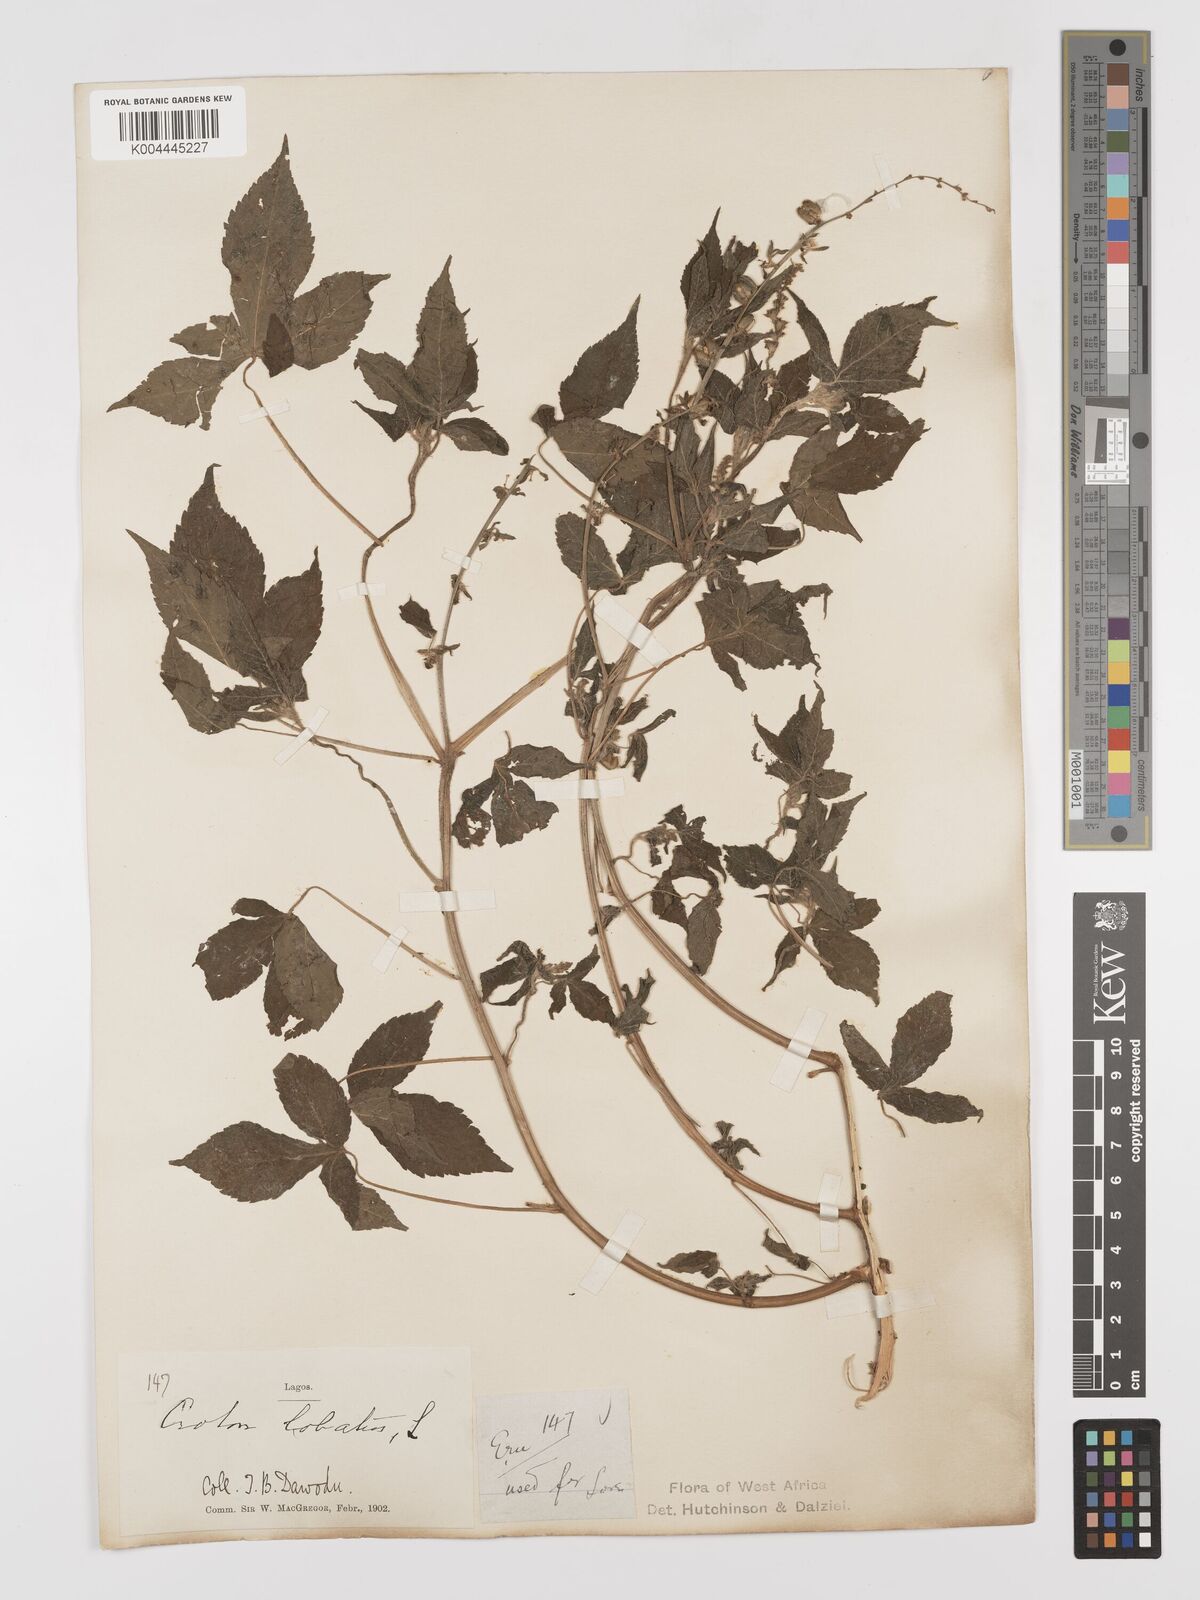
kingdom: Plantae
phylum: Tracheophyta
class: Magnoliopsida
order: Malpighiales
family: Euphorbiaceae
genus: Astraea
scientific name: Astraea lobata
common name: Lobed croton
